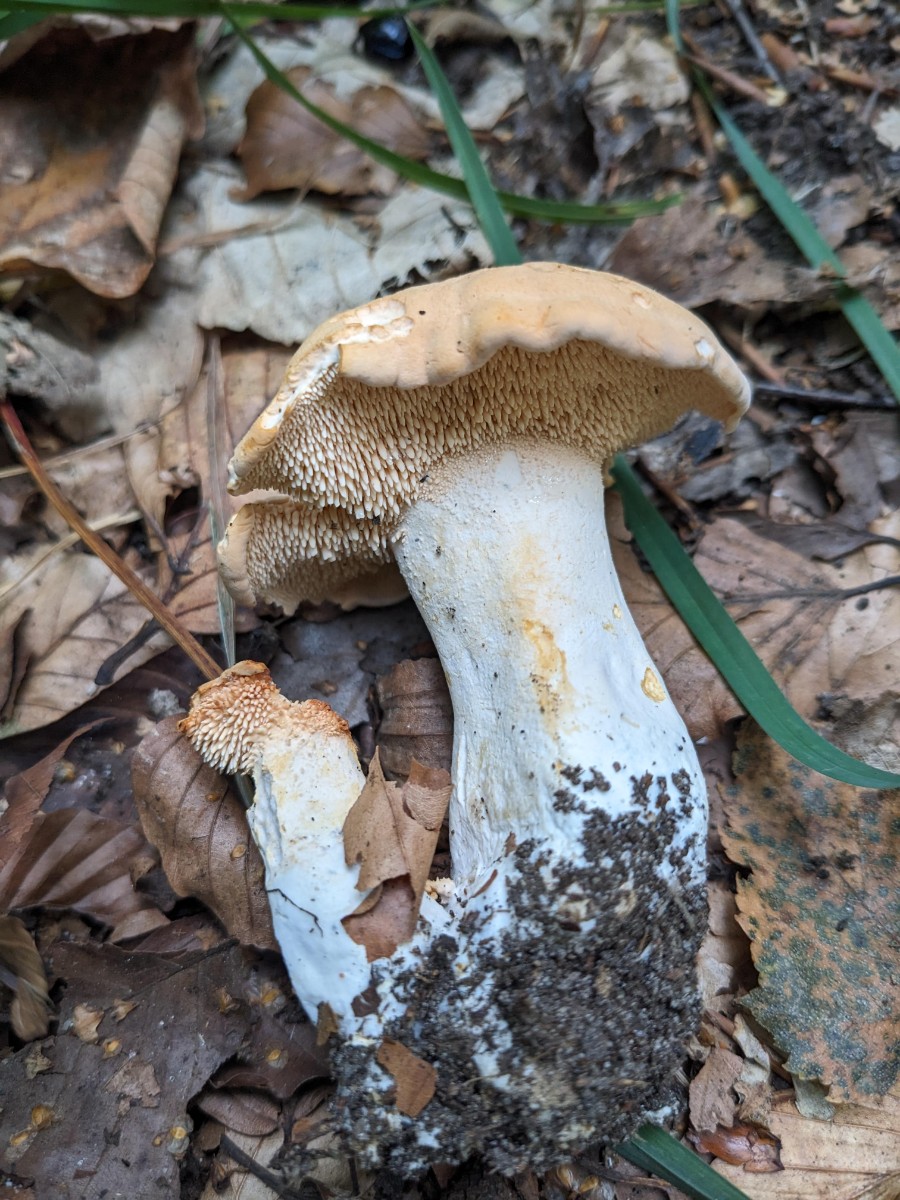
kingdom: Fungi
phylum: Basidiomycota
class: Agaricomycetes
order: Cantharellales
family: Hydnaceae
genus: Hydnum
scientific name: Hydnum
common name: pigsvamp
